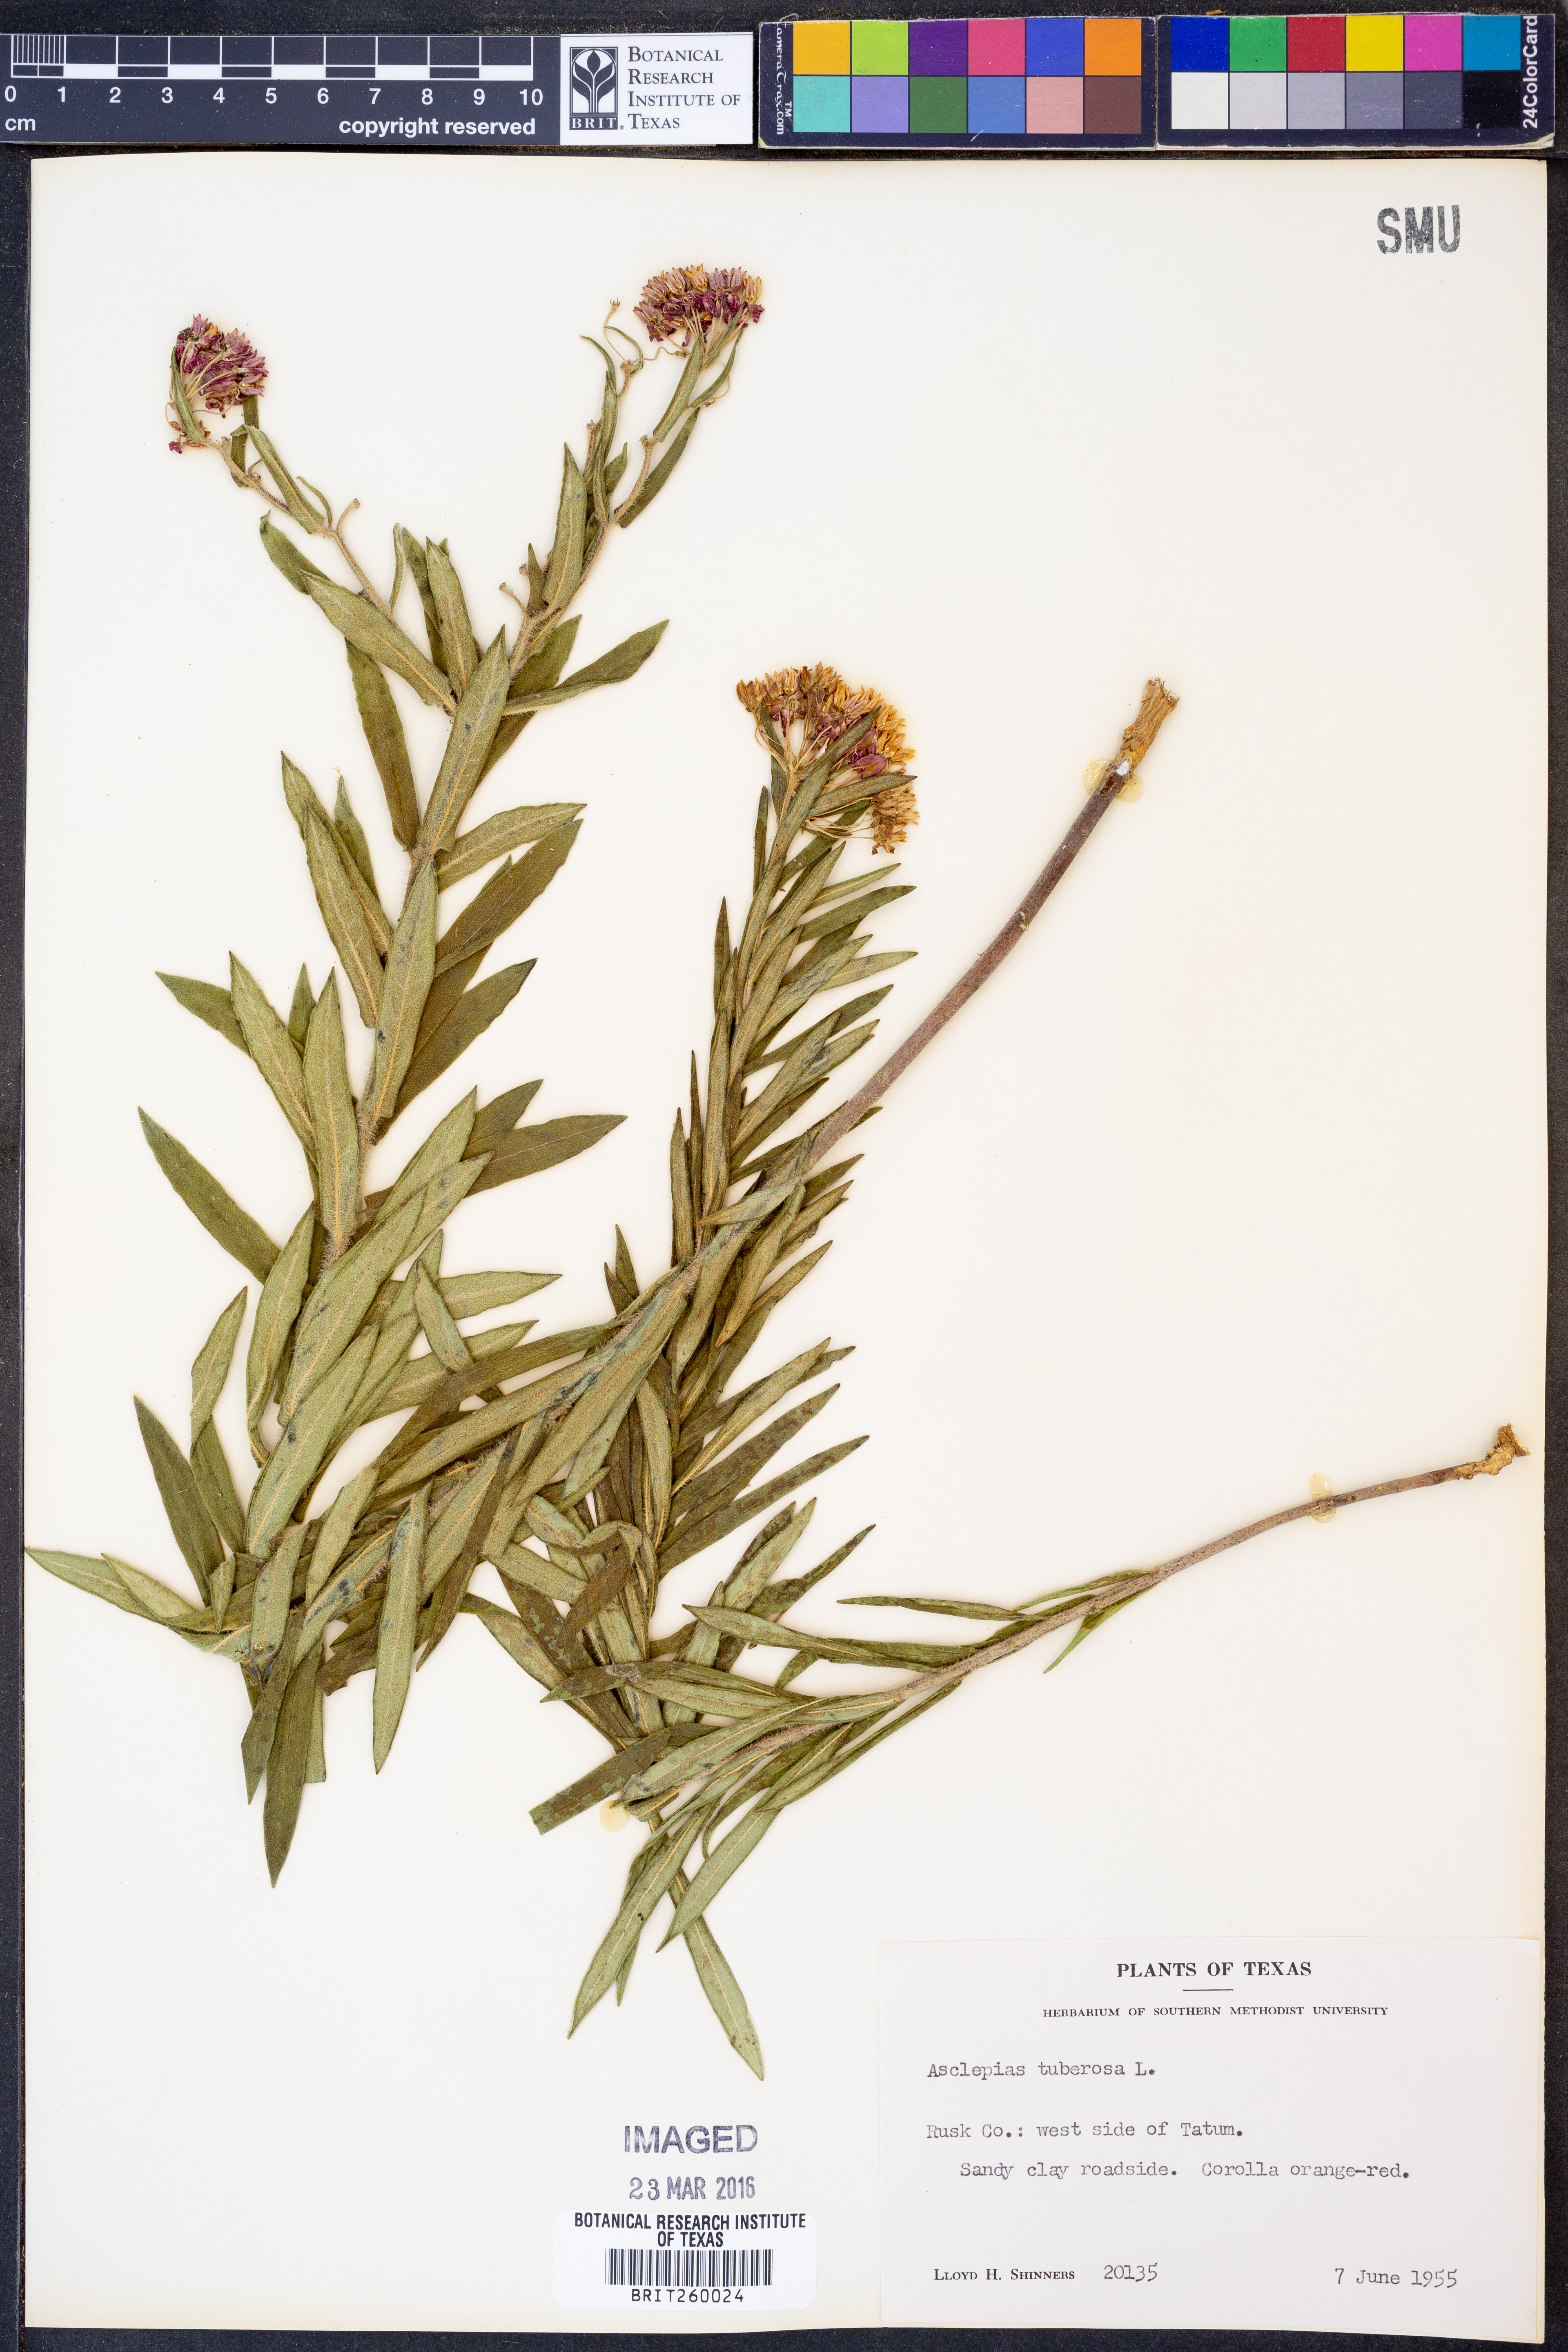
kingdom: Plantae
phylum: Tracheophyta
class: Magnoliopsida
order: Gentianales
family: Apocynaceae
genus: Asclepias
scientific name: Asclepias tuberosa
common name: Butterfly milkweed
